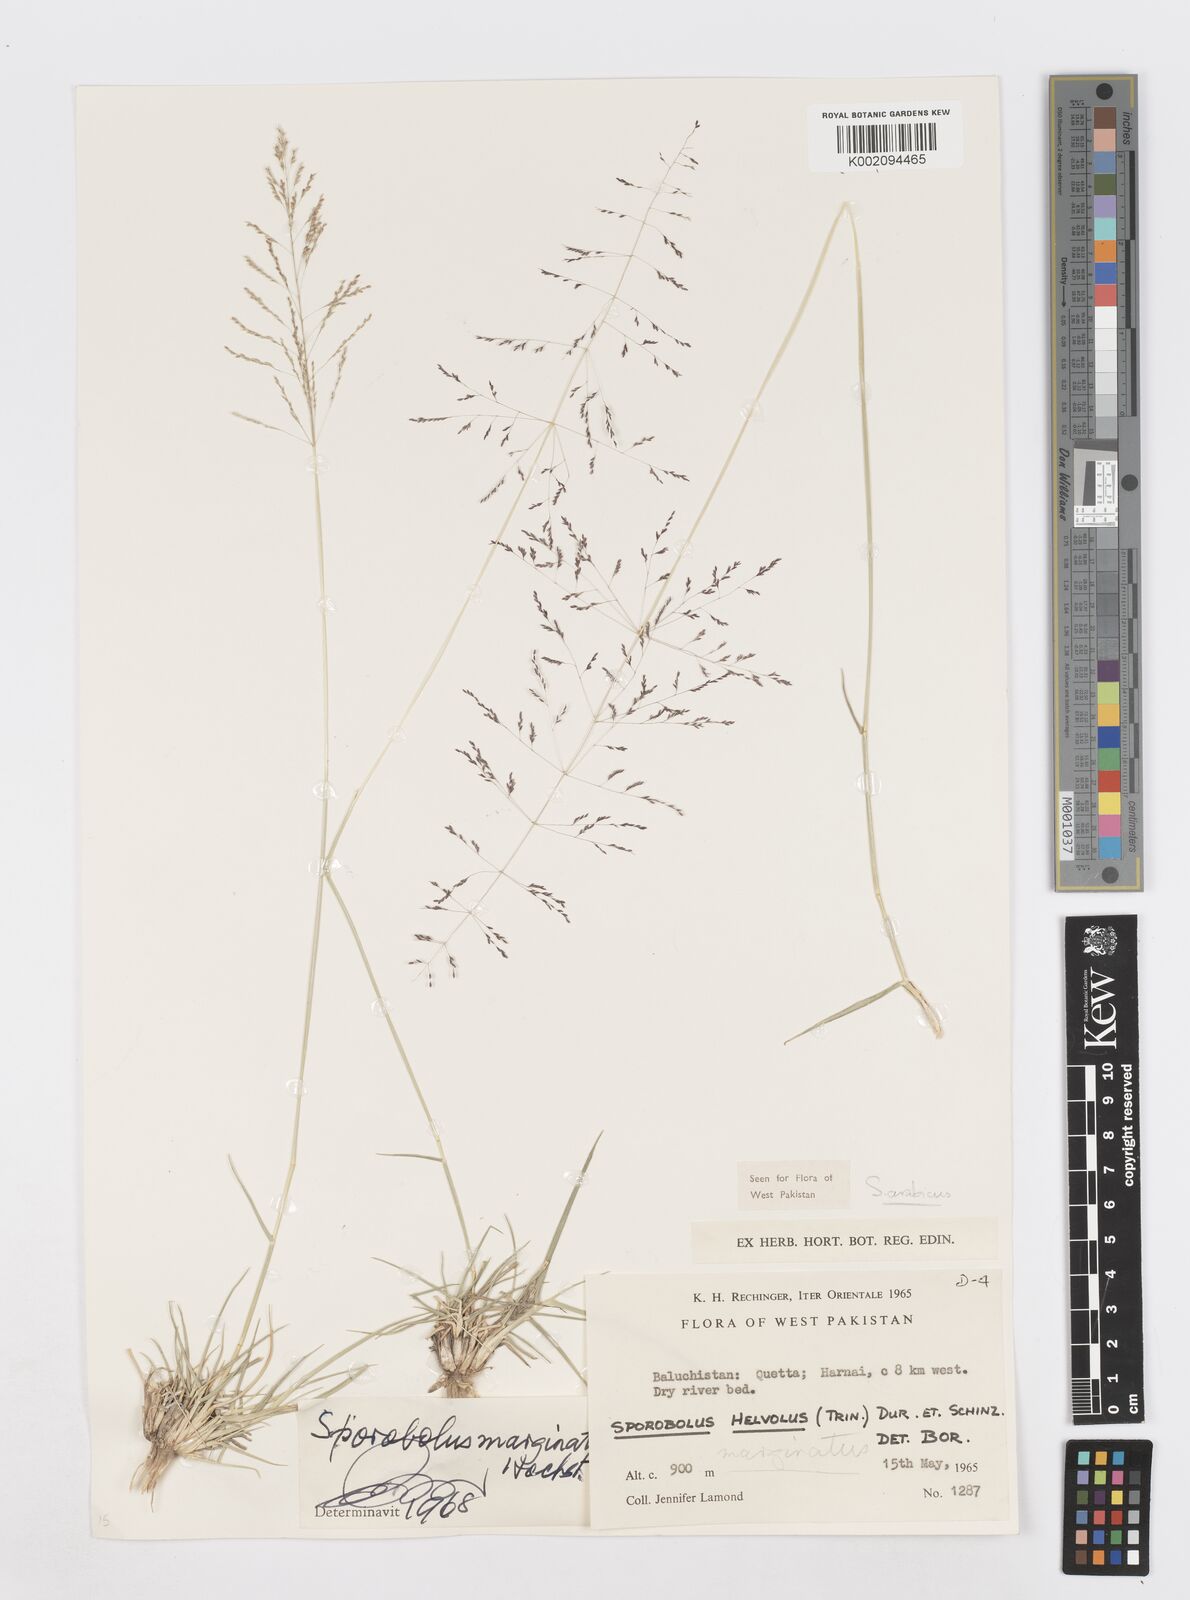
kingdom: Plantae
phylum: Tracheophyta
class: Liliopsida
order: Poales
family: Poaceae
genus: Sporobolus
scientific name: Sporobolus ioclados
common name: Pan dropseed
